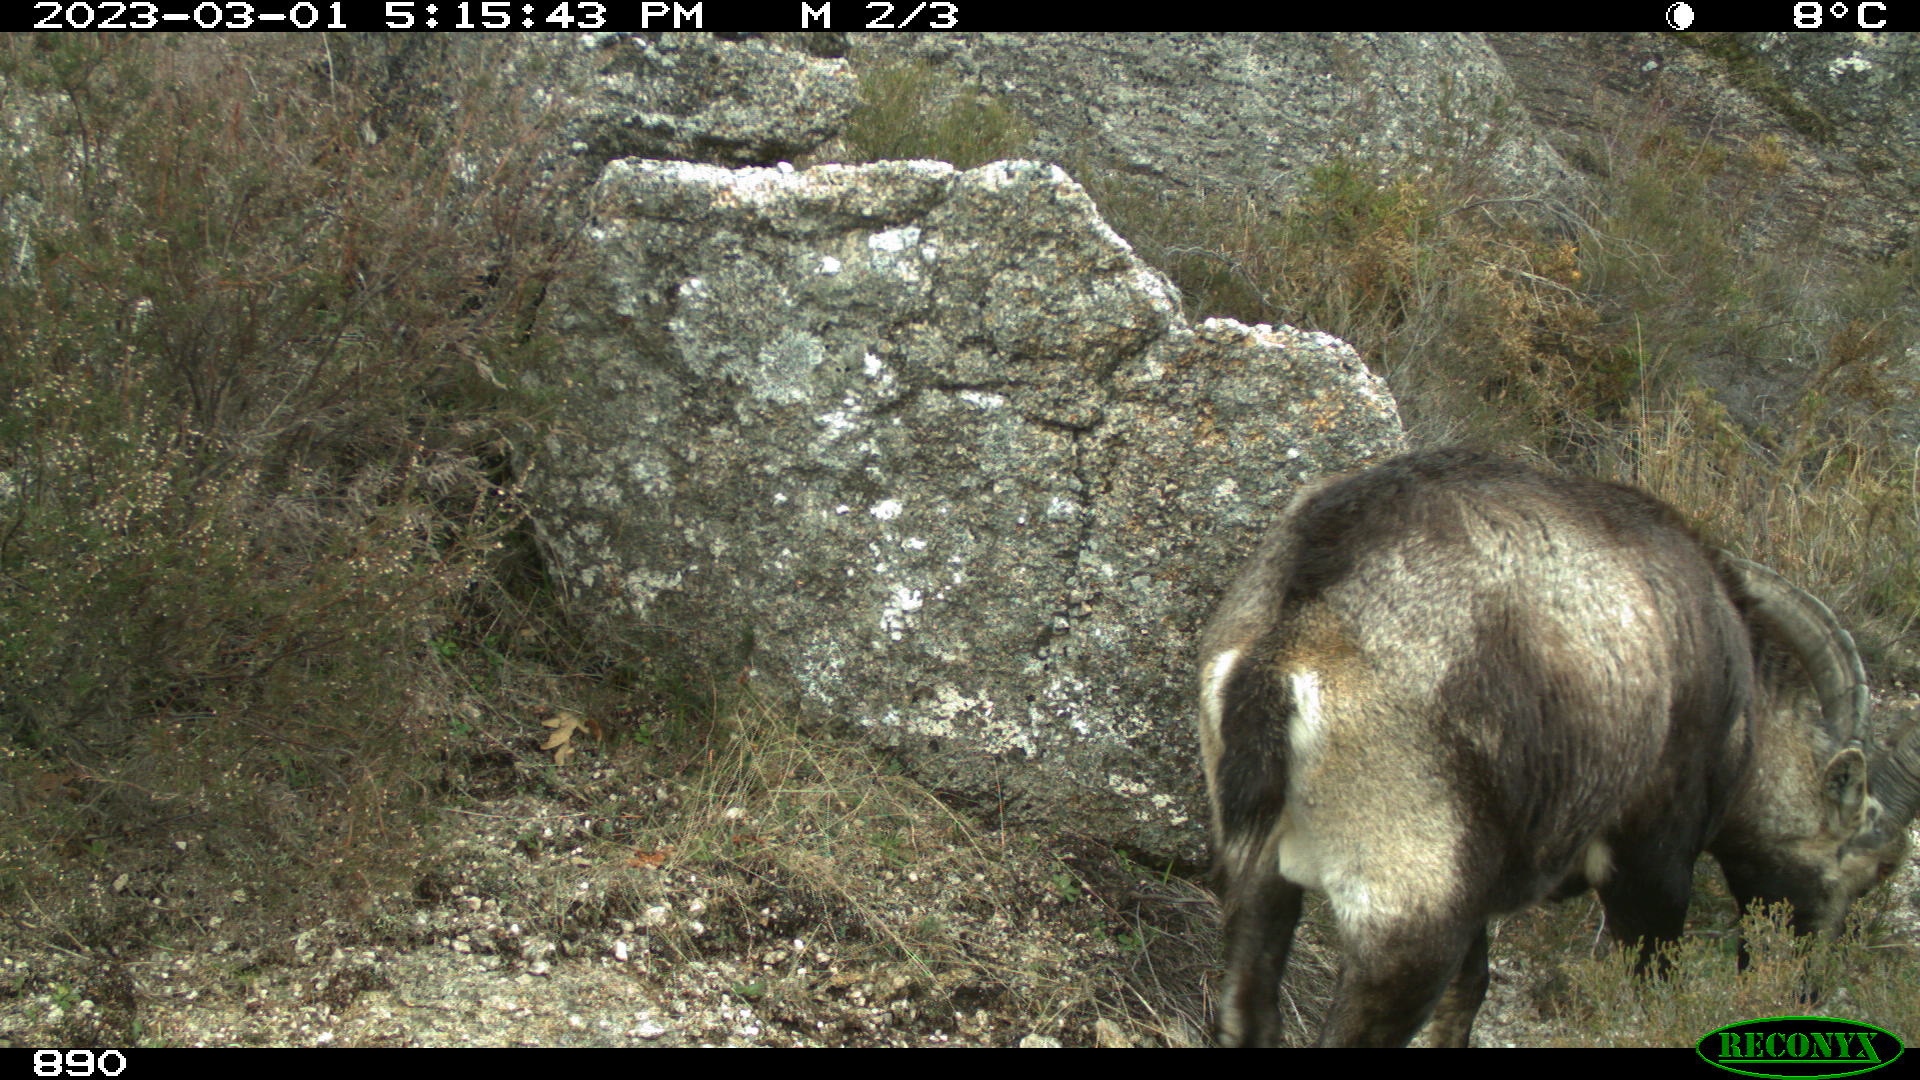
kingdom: Animalia
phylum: Chordata
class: Mammalia
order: Artiodactyla
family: Bovidae
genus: Capra
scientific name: Capra pyrenaica
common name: Spanish ibex
